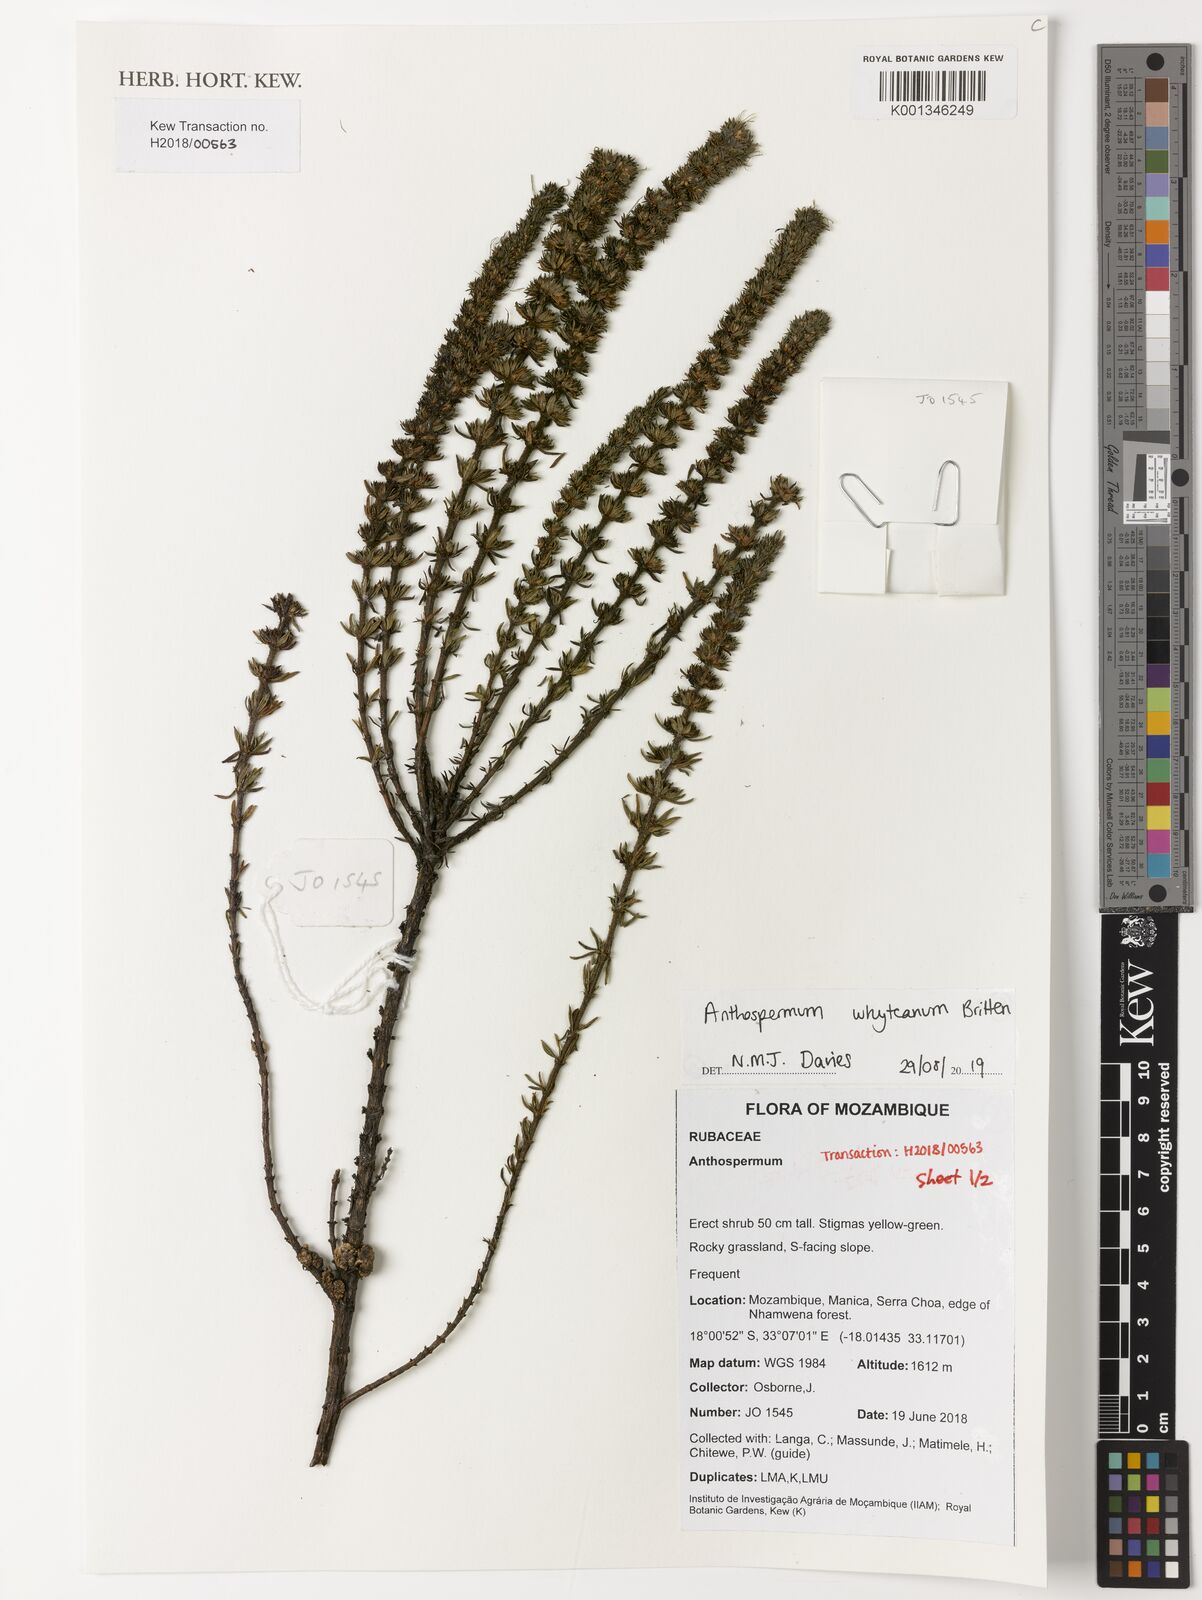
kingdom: Plantae
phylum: Tracheophyta
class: Magnoliopsida
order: Gentianales
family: Rubiaceae
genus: Anthospermum
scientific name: Anthospermum whyteanum
